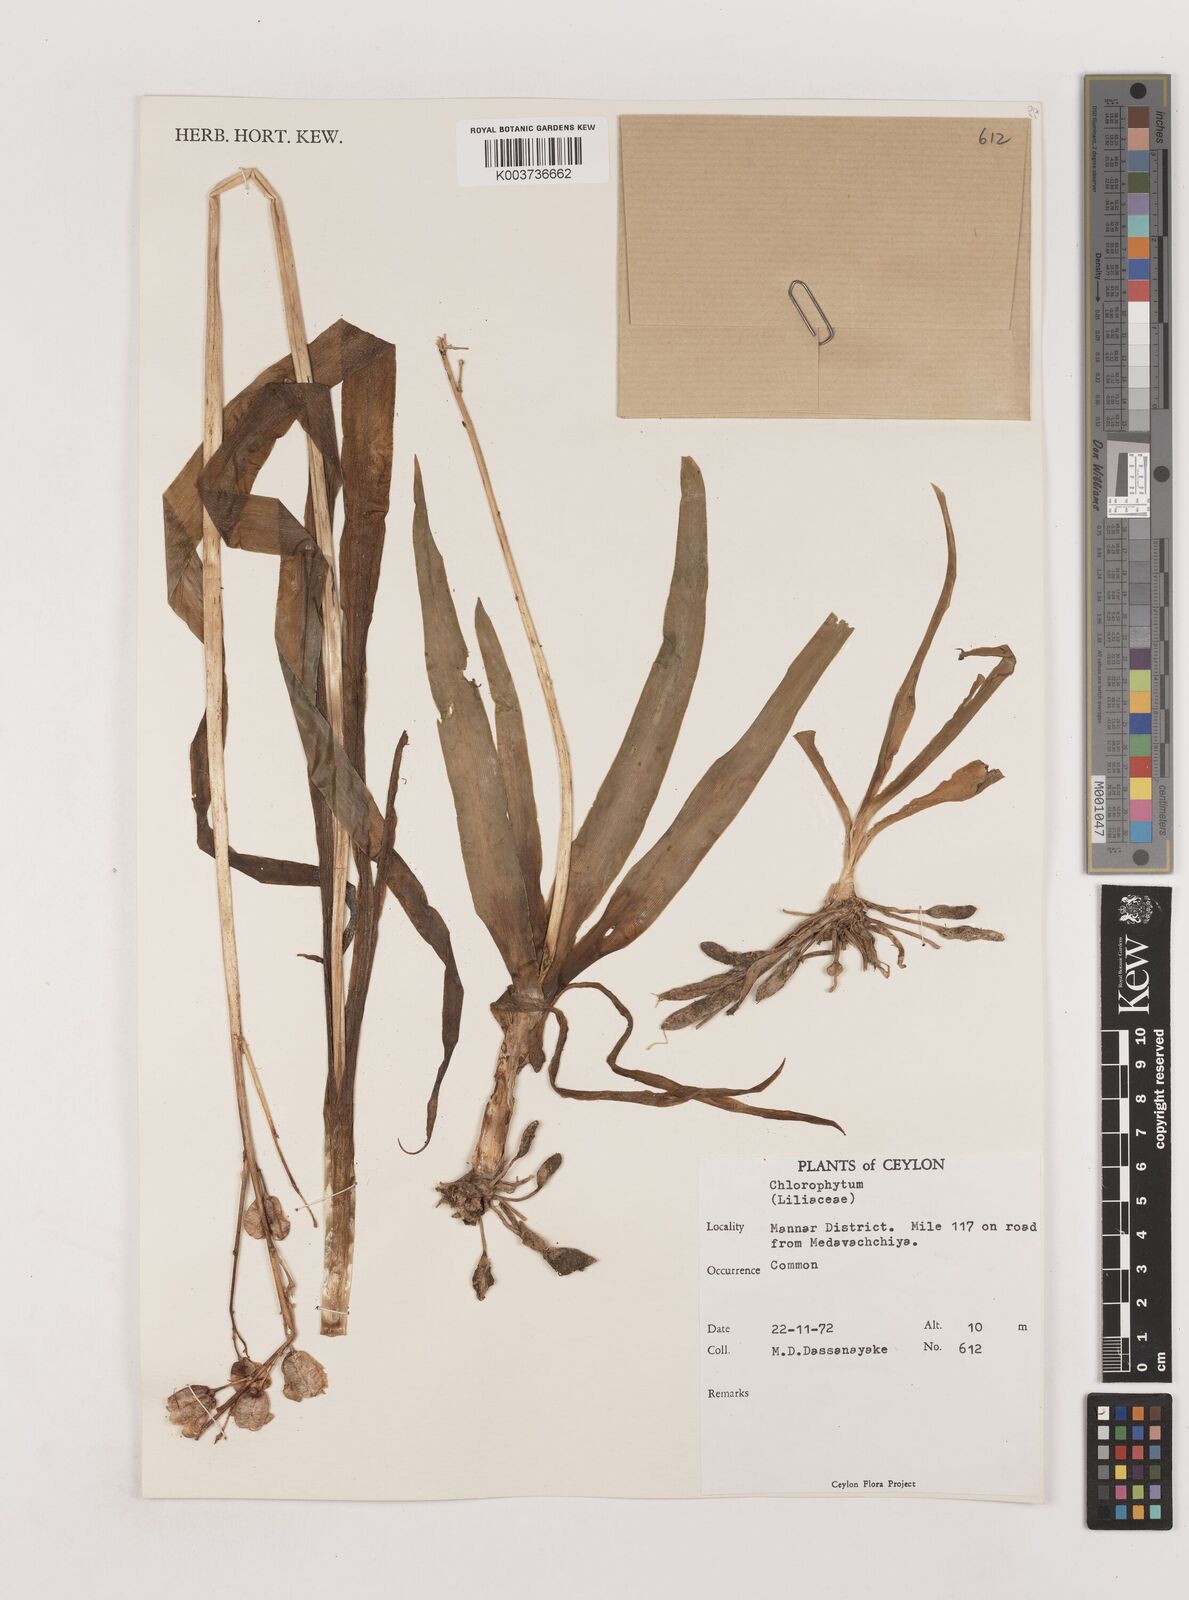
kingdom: Plantae
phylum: Tracheophyta
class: Liliopsida
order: Asparagales
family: Asparagaceae
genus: Chlorophytum
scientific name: Chlorophytum
